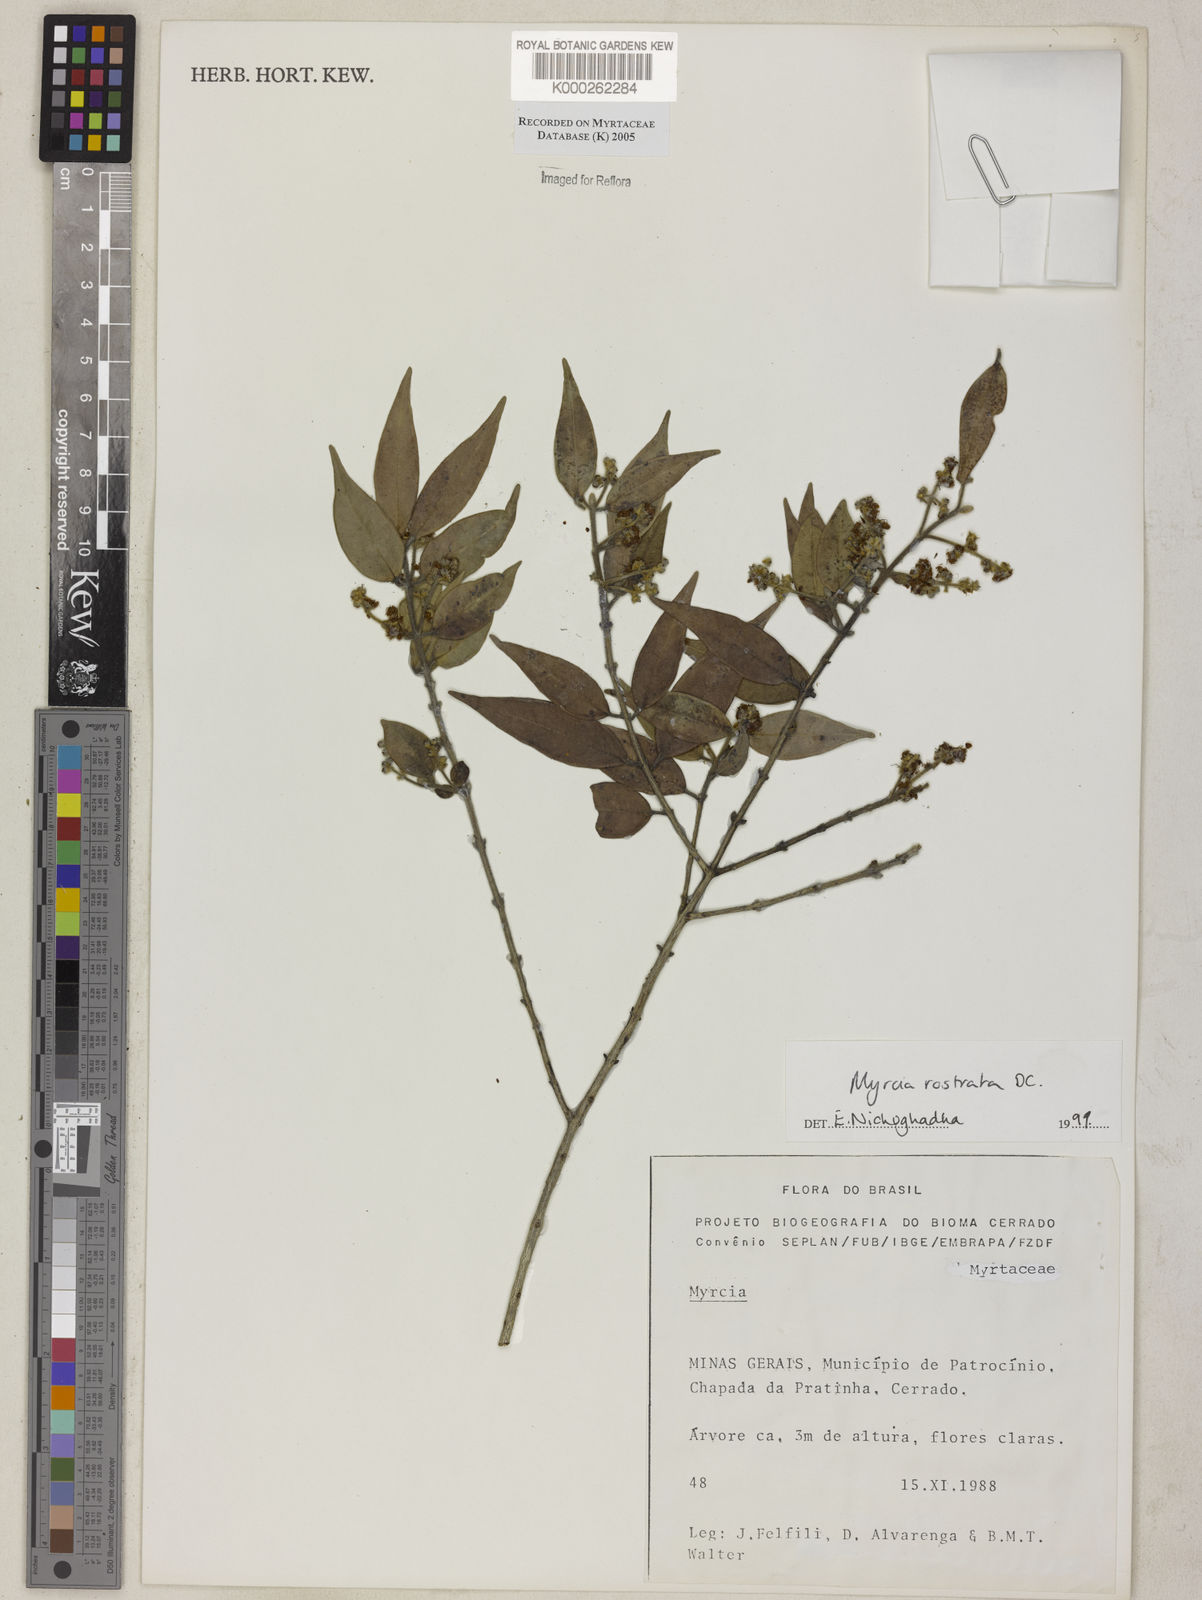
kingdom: Plantae
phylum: Tracheophyta
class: Magnoliopsida
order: Myrtales
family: Myrtaceae
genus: Myrcia
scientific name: Myrcia splendens
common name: Surinam cherry
